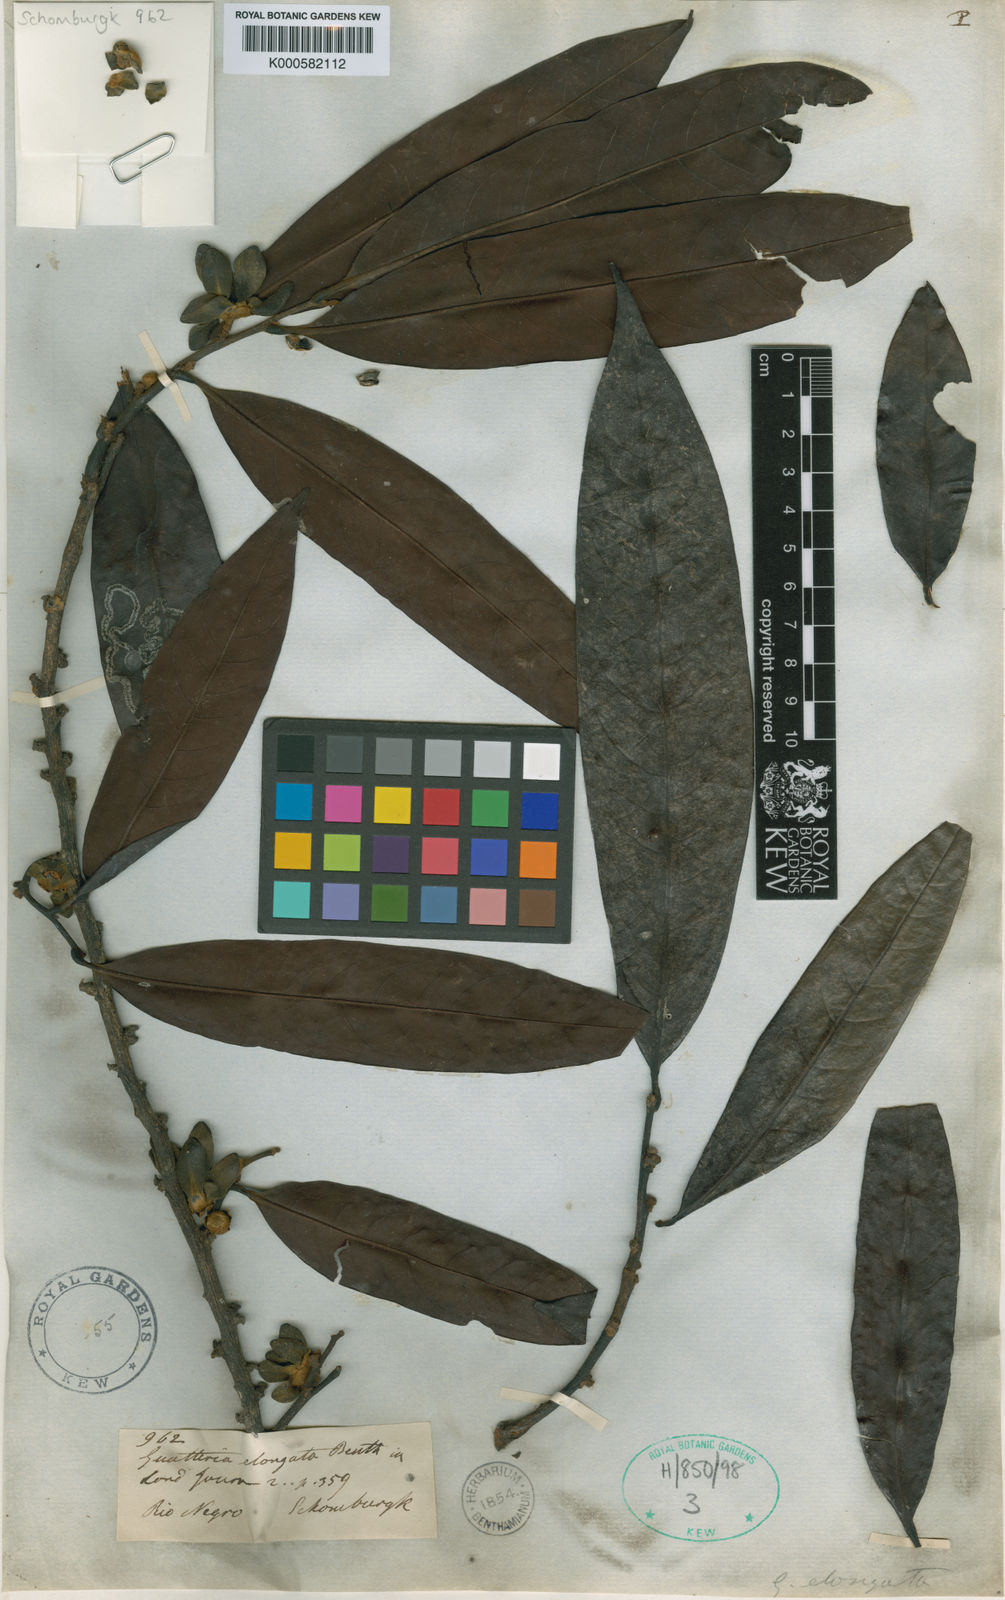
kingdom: Plantae
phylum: Tracheophyta
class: Magnoliopsida
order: Magnoliales
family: Annonaceae
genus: Guatteria
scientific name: Guatteria elongata
